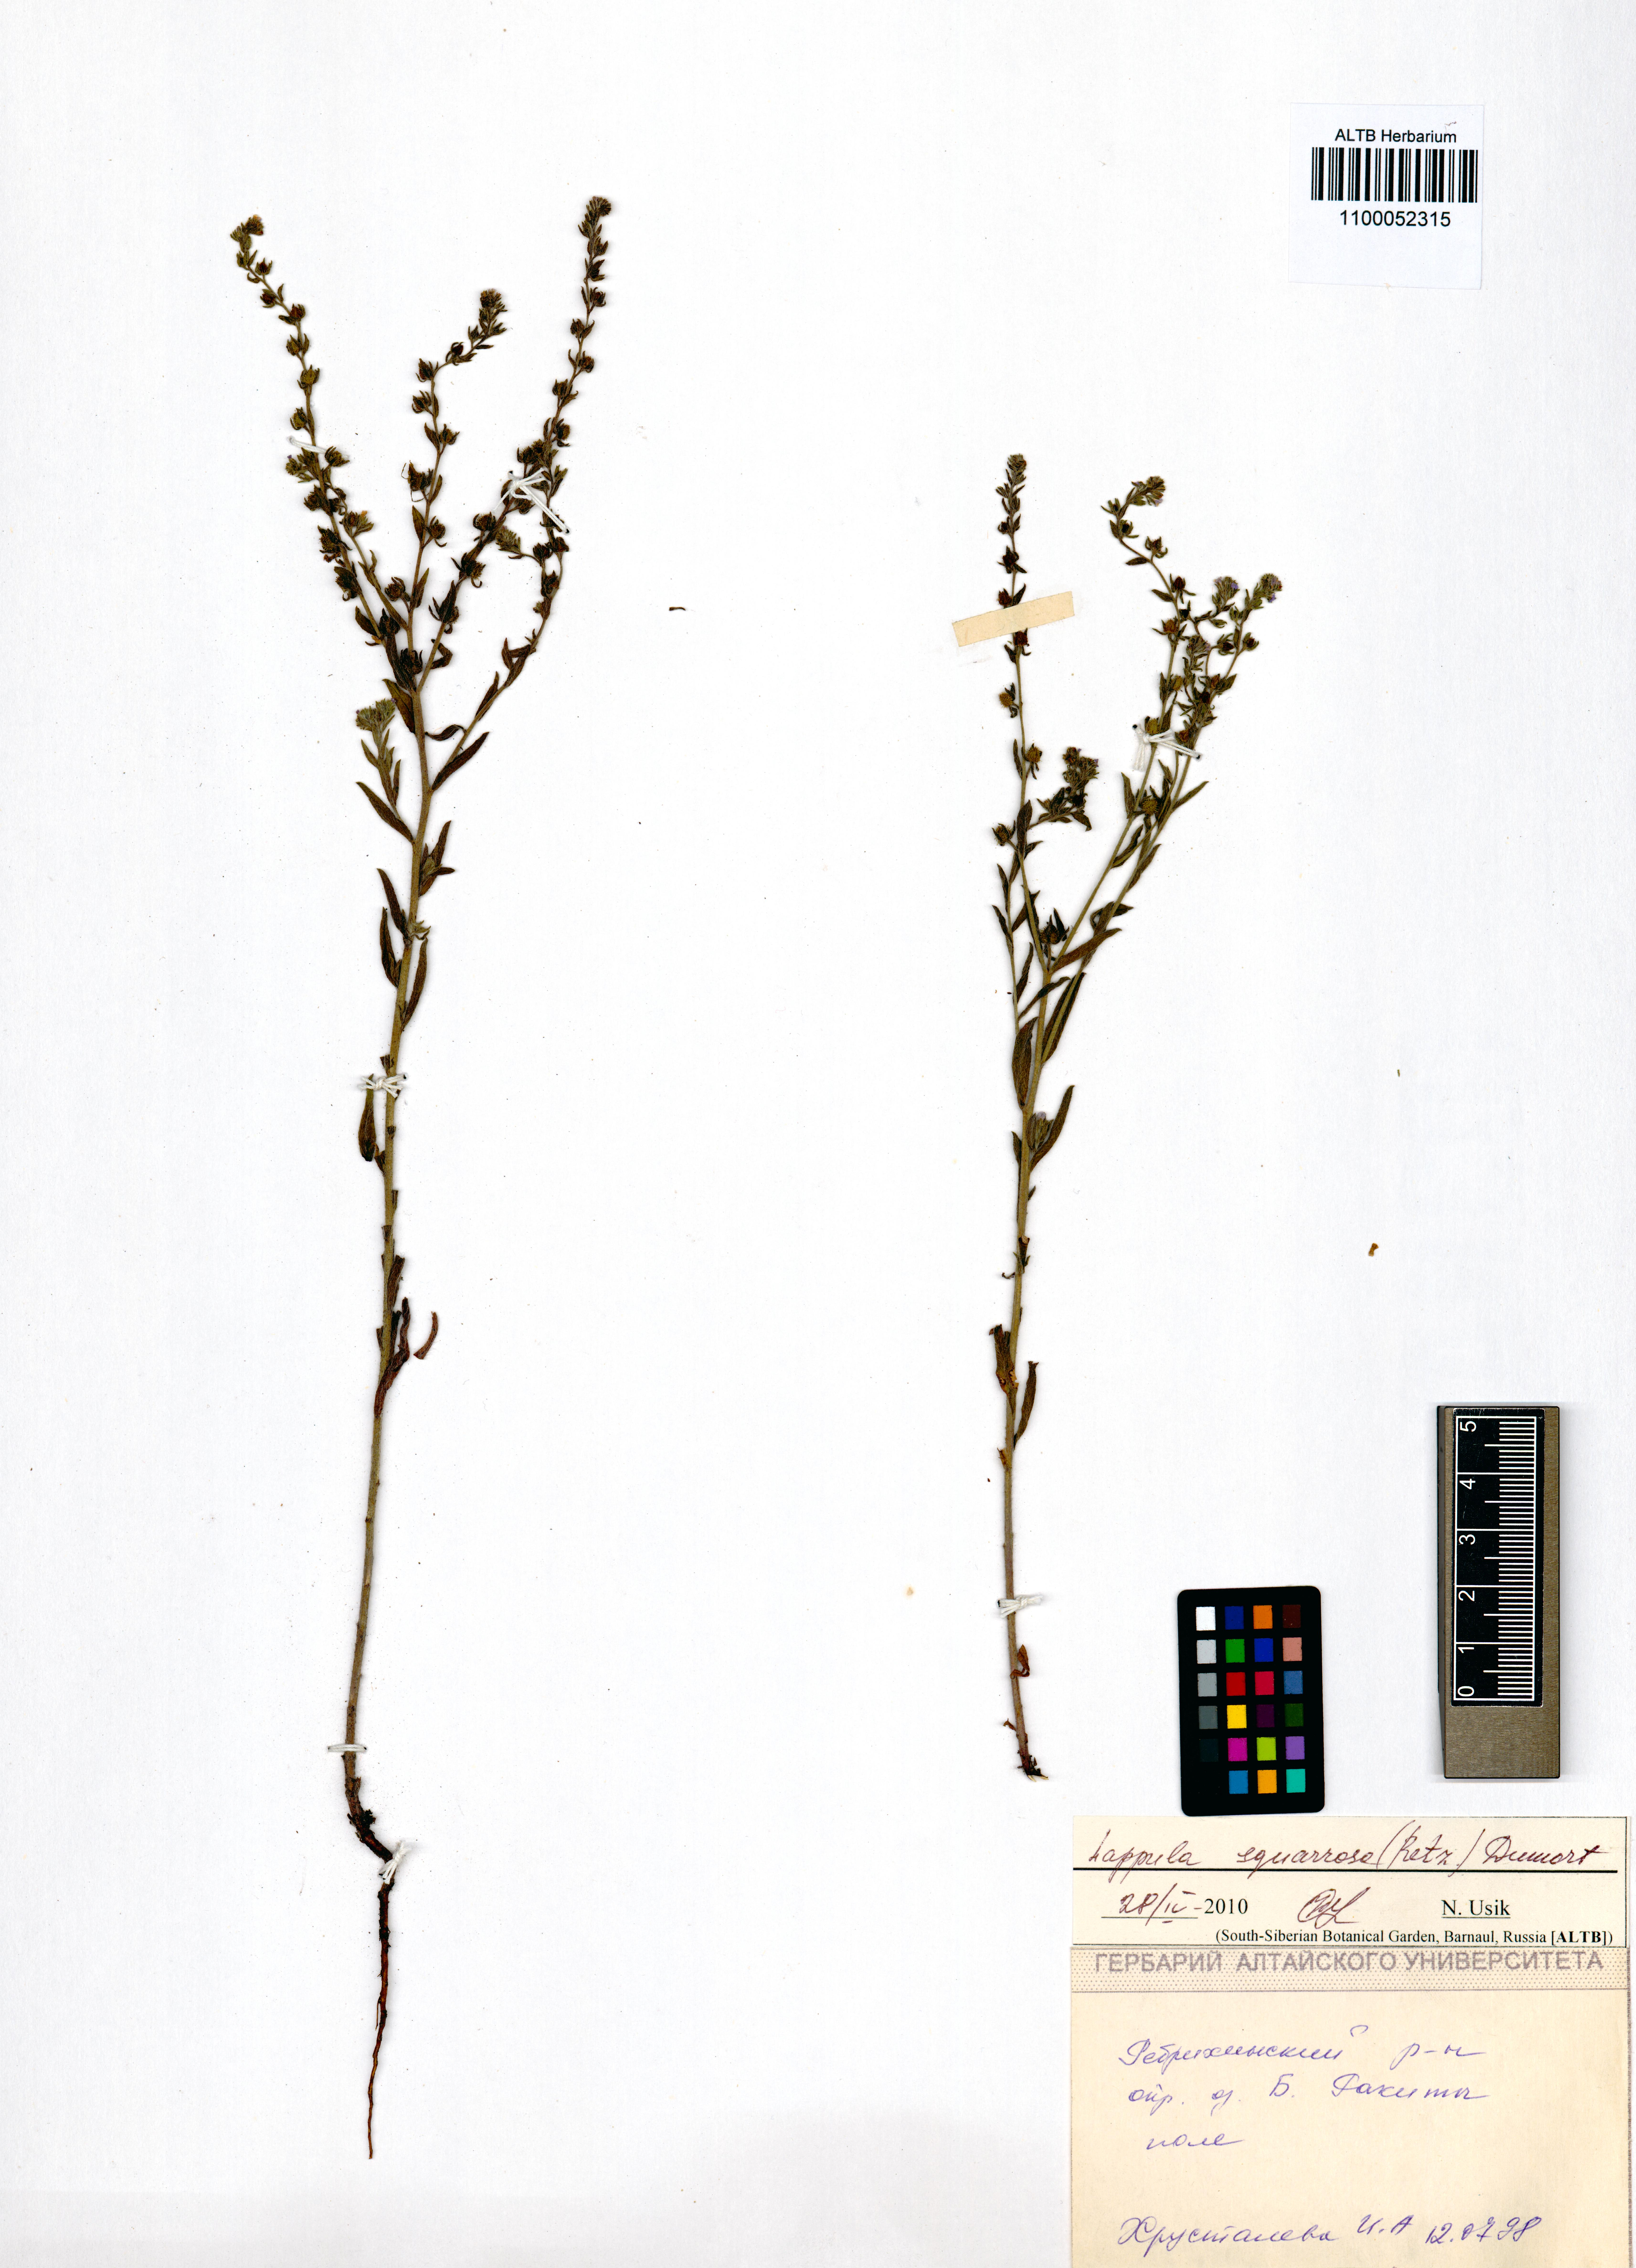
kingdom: Plantae
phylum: Tracheophyta
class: Magnoliopsida
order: Boraginales
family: Boraginaceae
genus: Lappula
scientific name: Lappula squarrosa
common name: European stickseed
